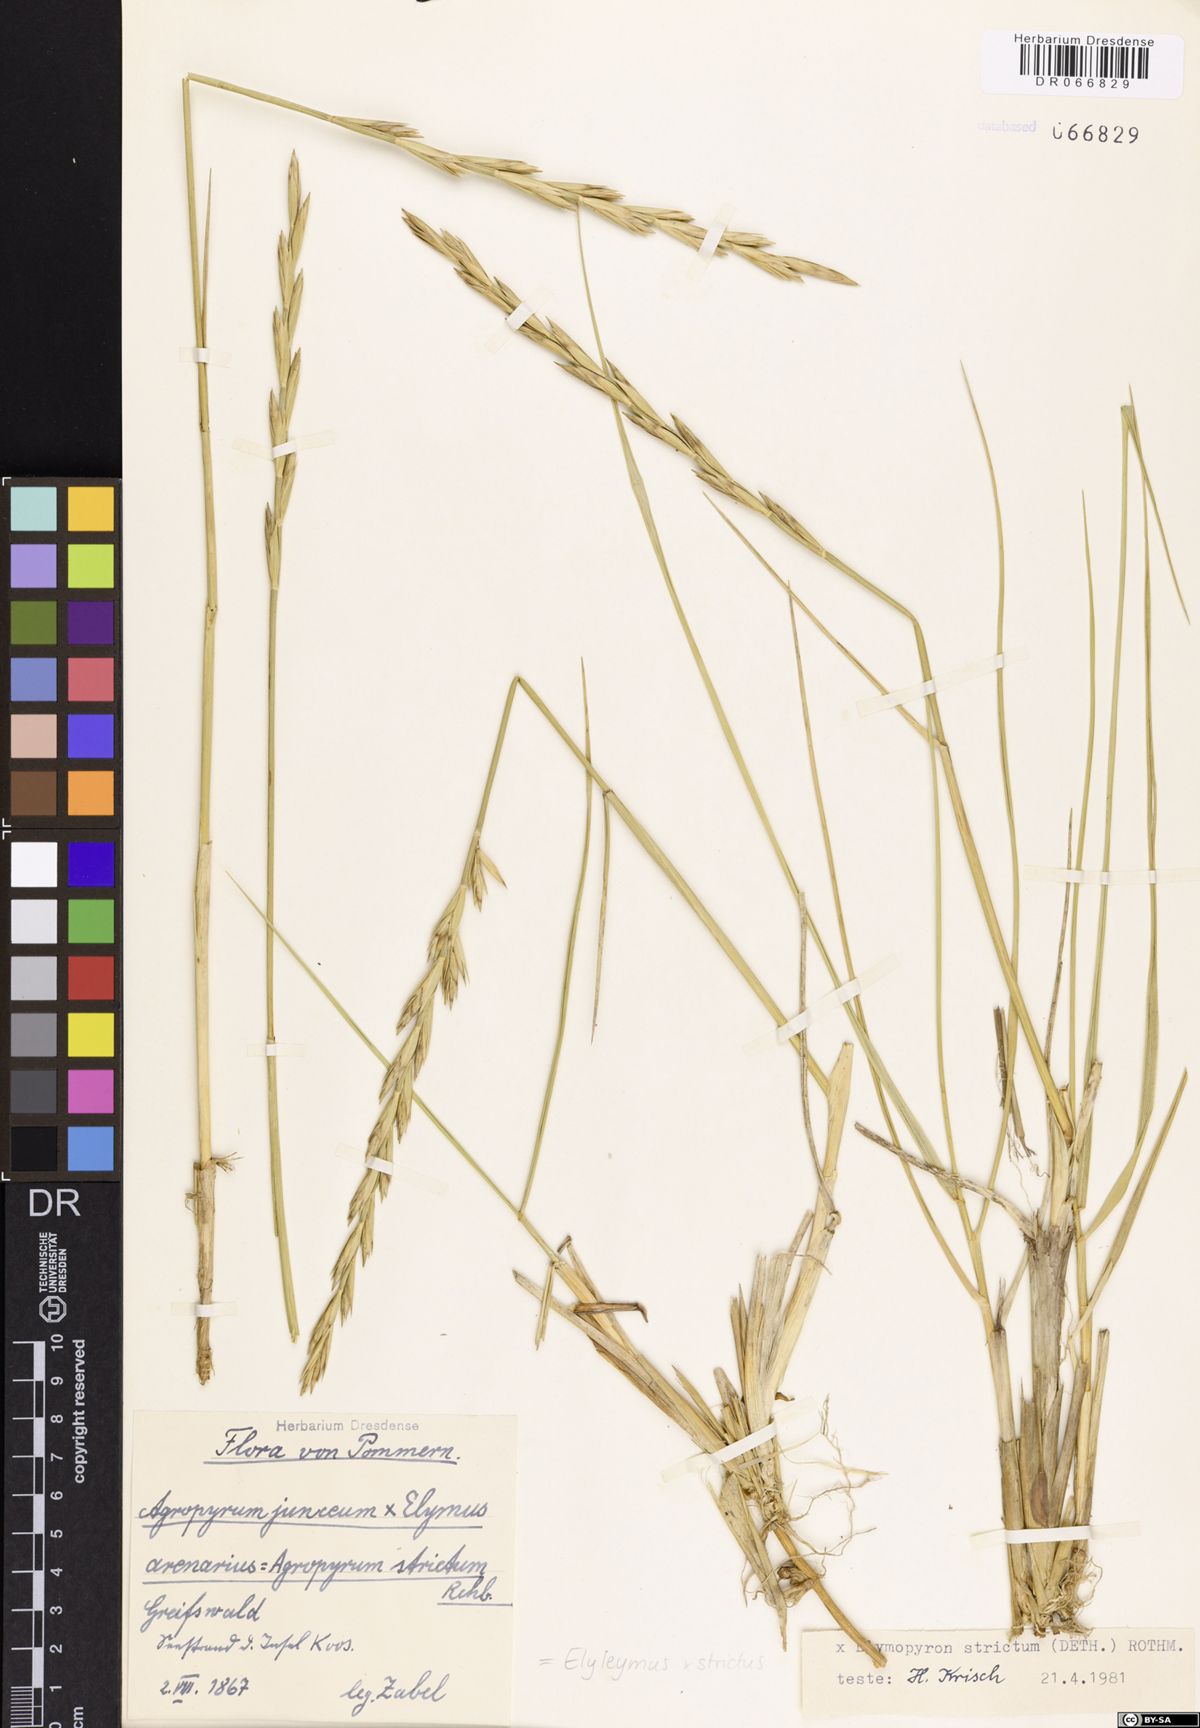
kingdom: Plantae
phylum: Tracheophyta
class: Liliopsida
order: Poales
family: Poaceae
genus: Elyleymus
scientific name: Elyleymus strictus
